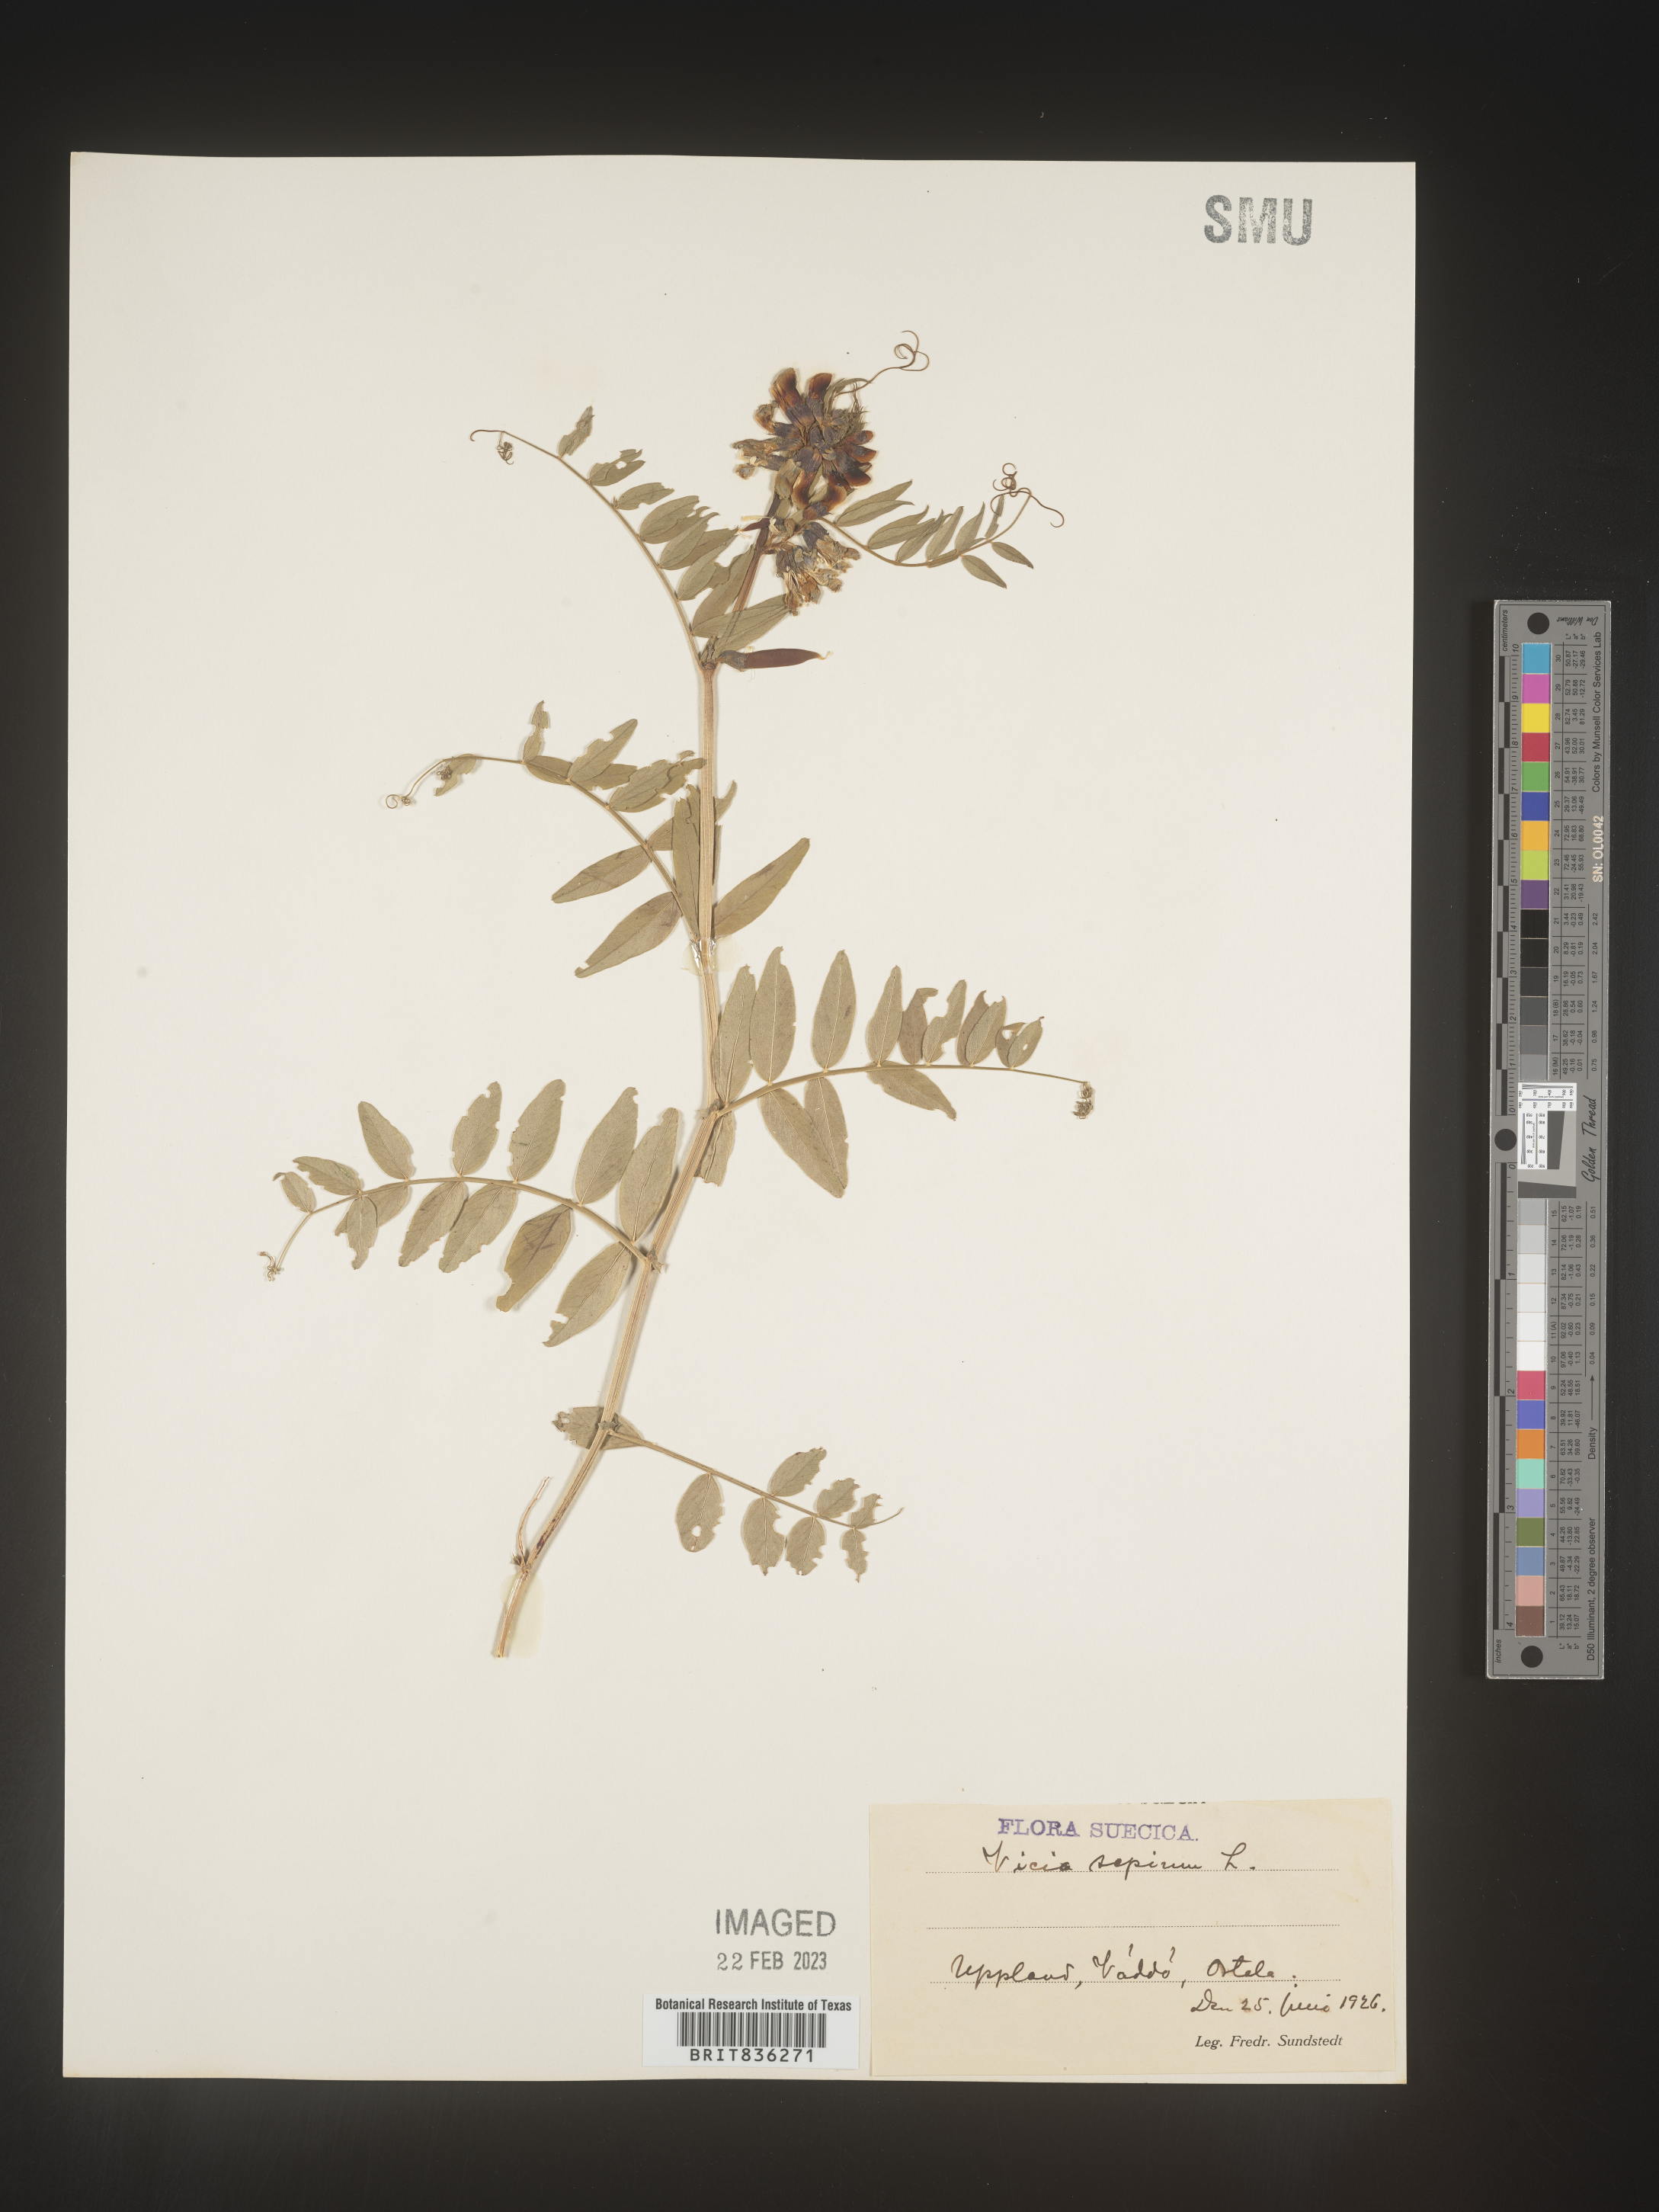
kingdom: Plantae
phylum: Tracheophyta
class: Magnoliopsida
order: Fabales
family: Fabaceae
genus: Vicia
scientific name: Vicia
